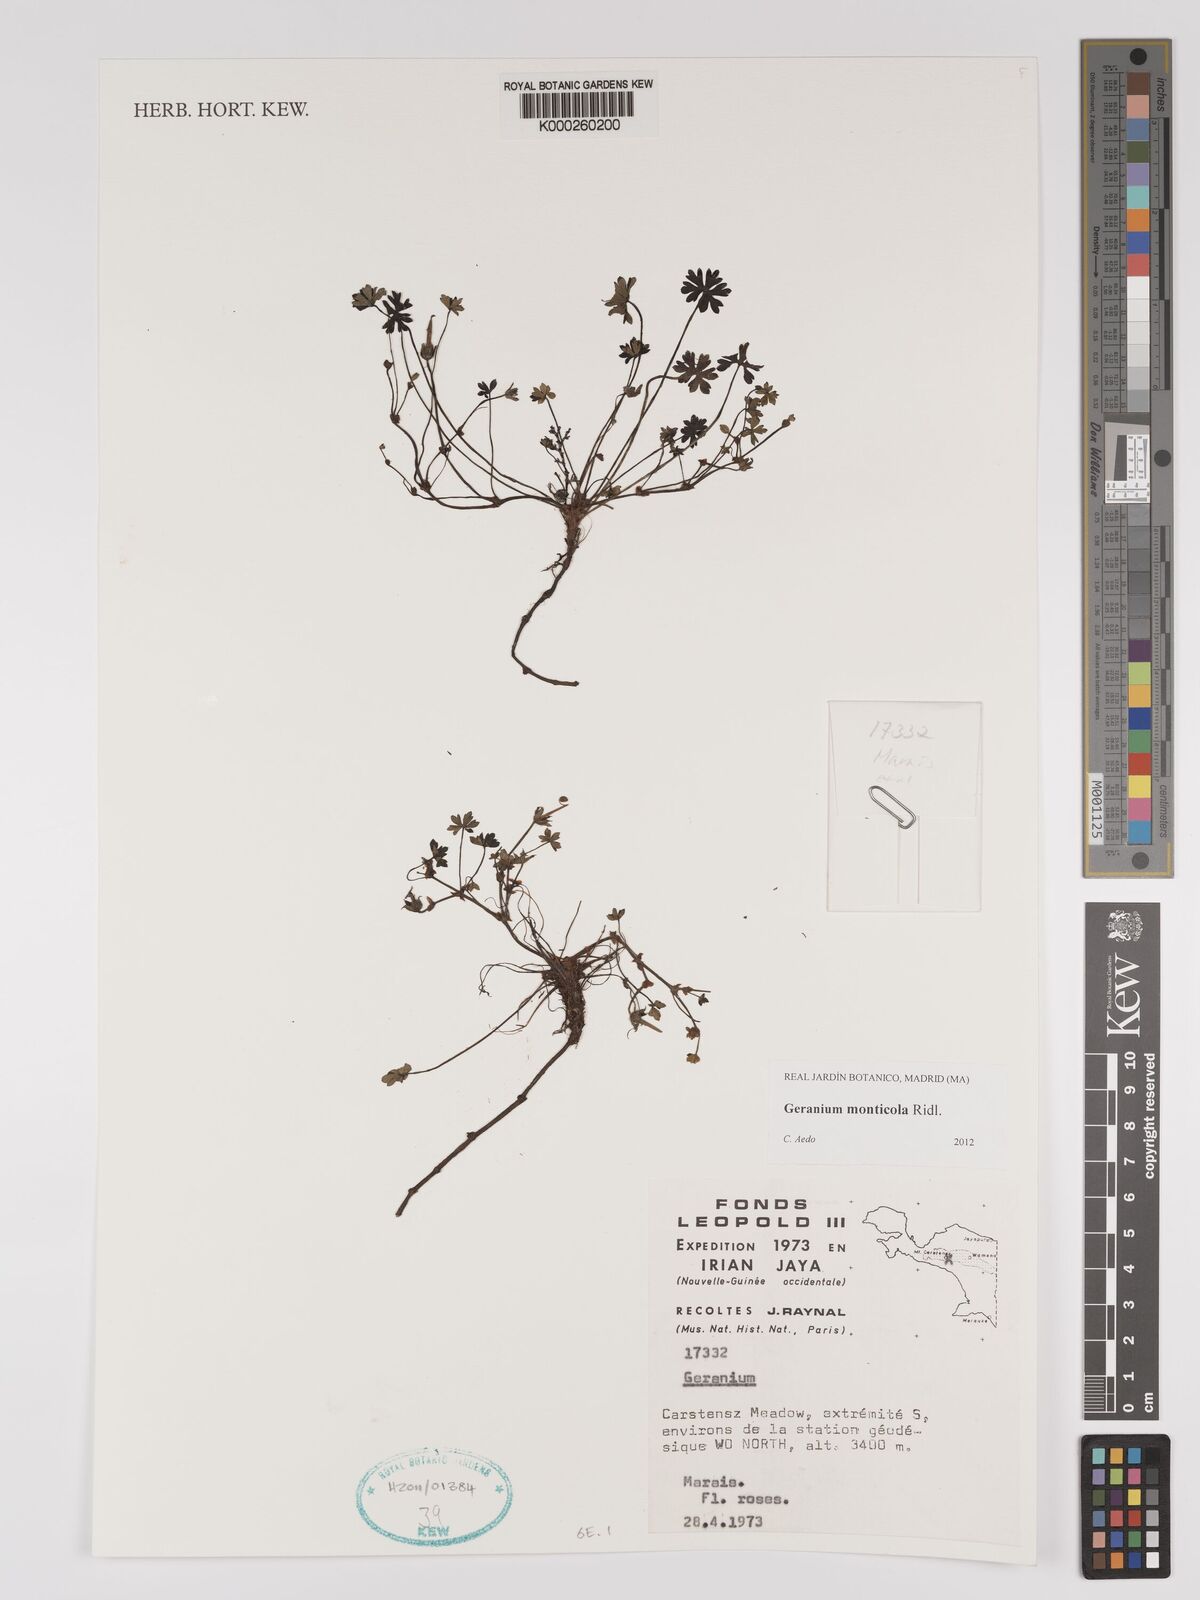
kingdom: Plantae
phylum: Tracheophyta
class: Magnoliopsida
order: Geraniales
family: Geraniaceae
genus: Geranium
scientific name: Geranium monticola
